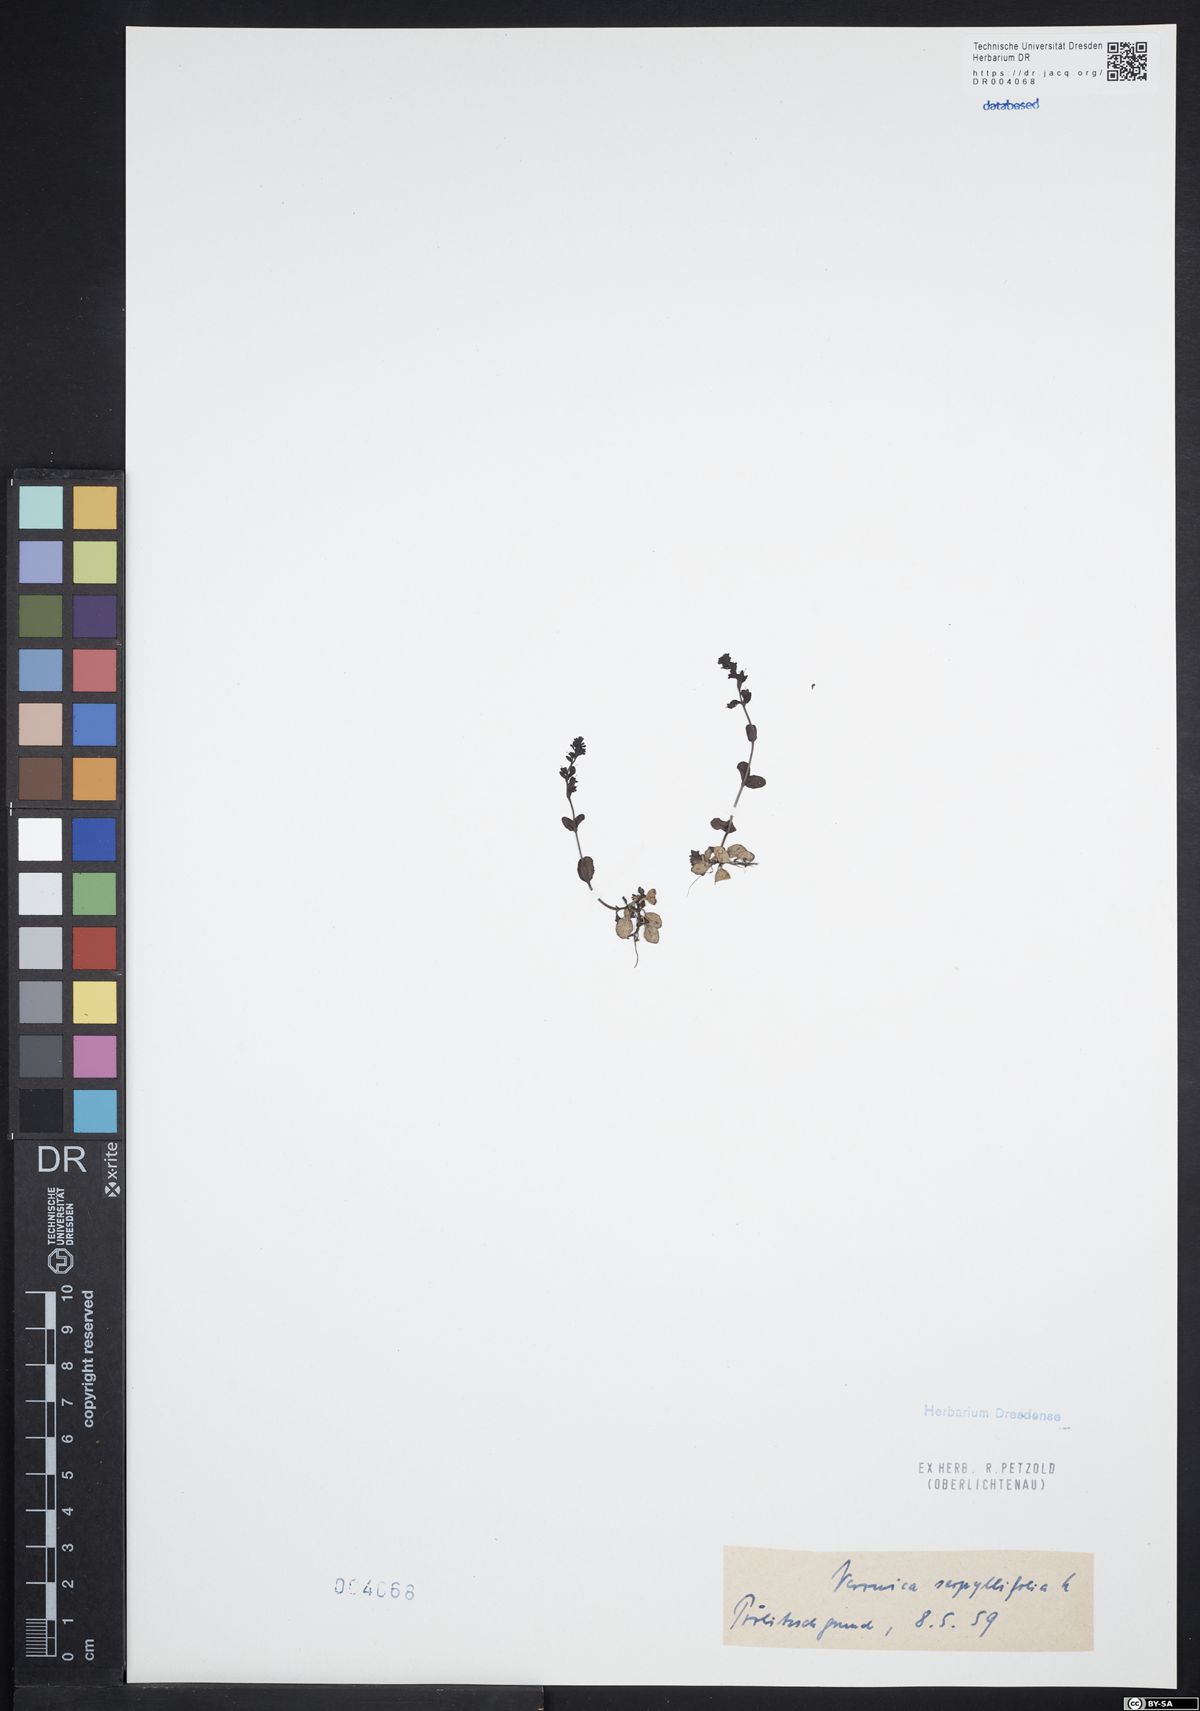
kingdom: Plantae
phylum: Tracheophyta
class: Magnoliopsida
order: Lamiales
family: Plantaginaceae
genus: Veronica
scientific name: Veronica serpyllifolia
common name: Thyme-leaved speedwell
